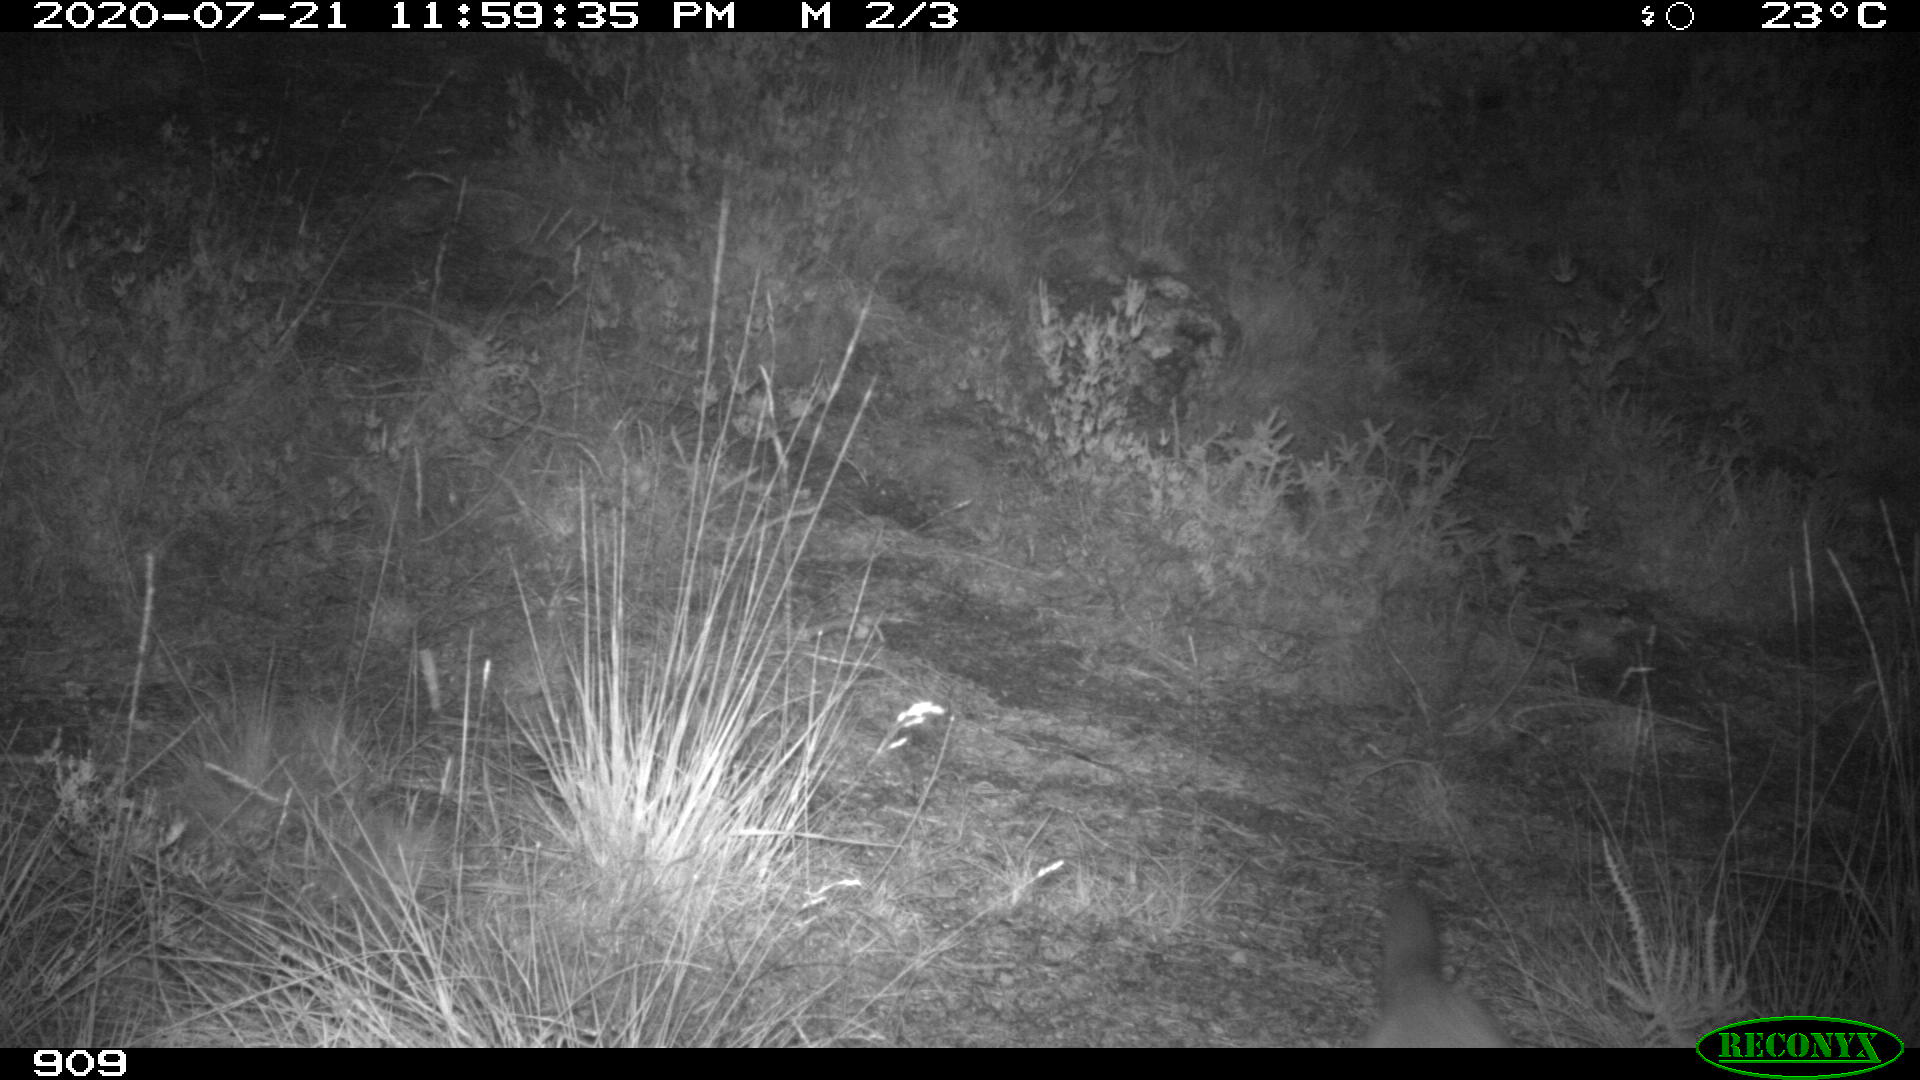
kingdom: Animalia
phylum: Chordata
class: Mammalia
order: Carnivora
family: Canidae
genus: Vulpes
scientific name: Vulpes vulpes
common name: Red fox
